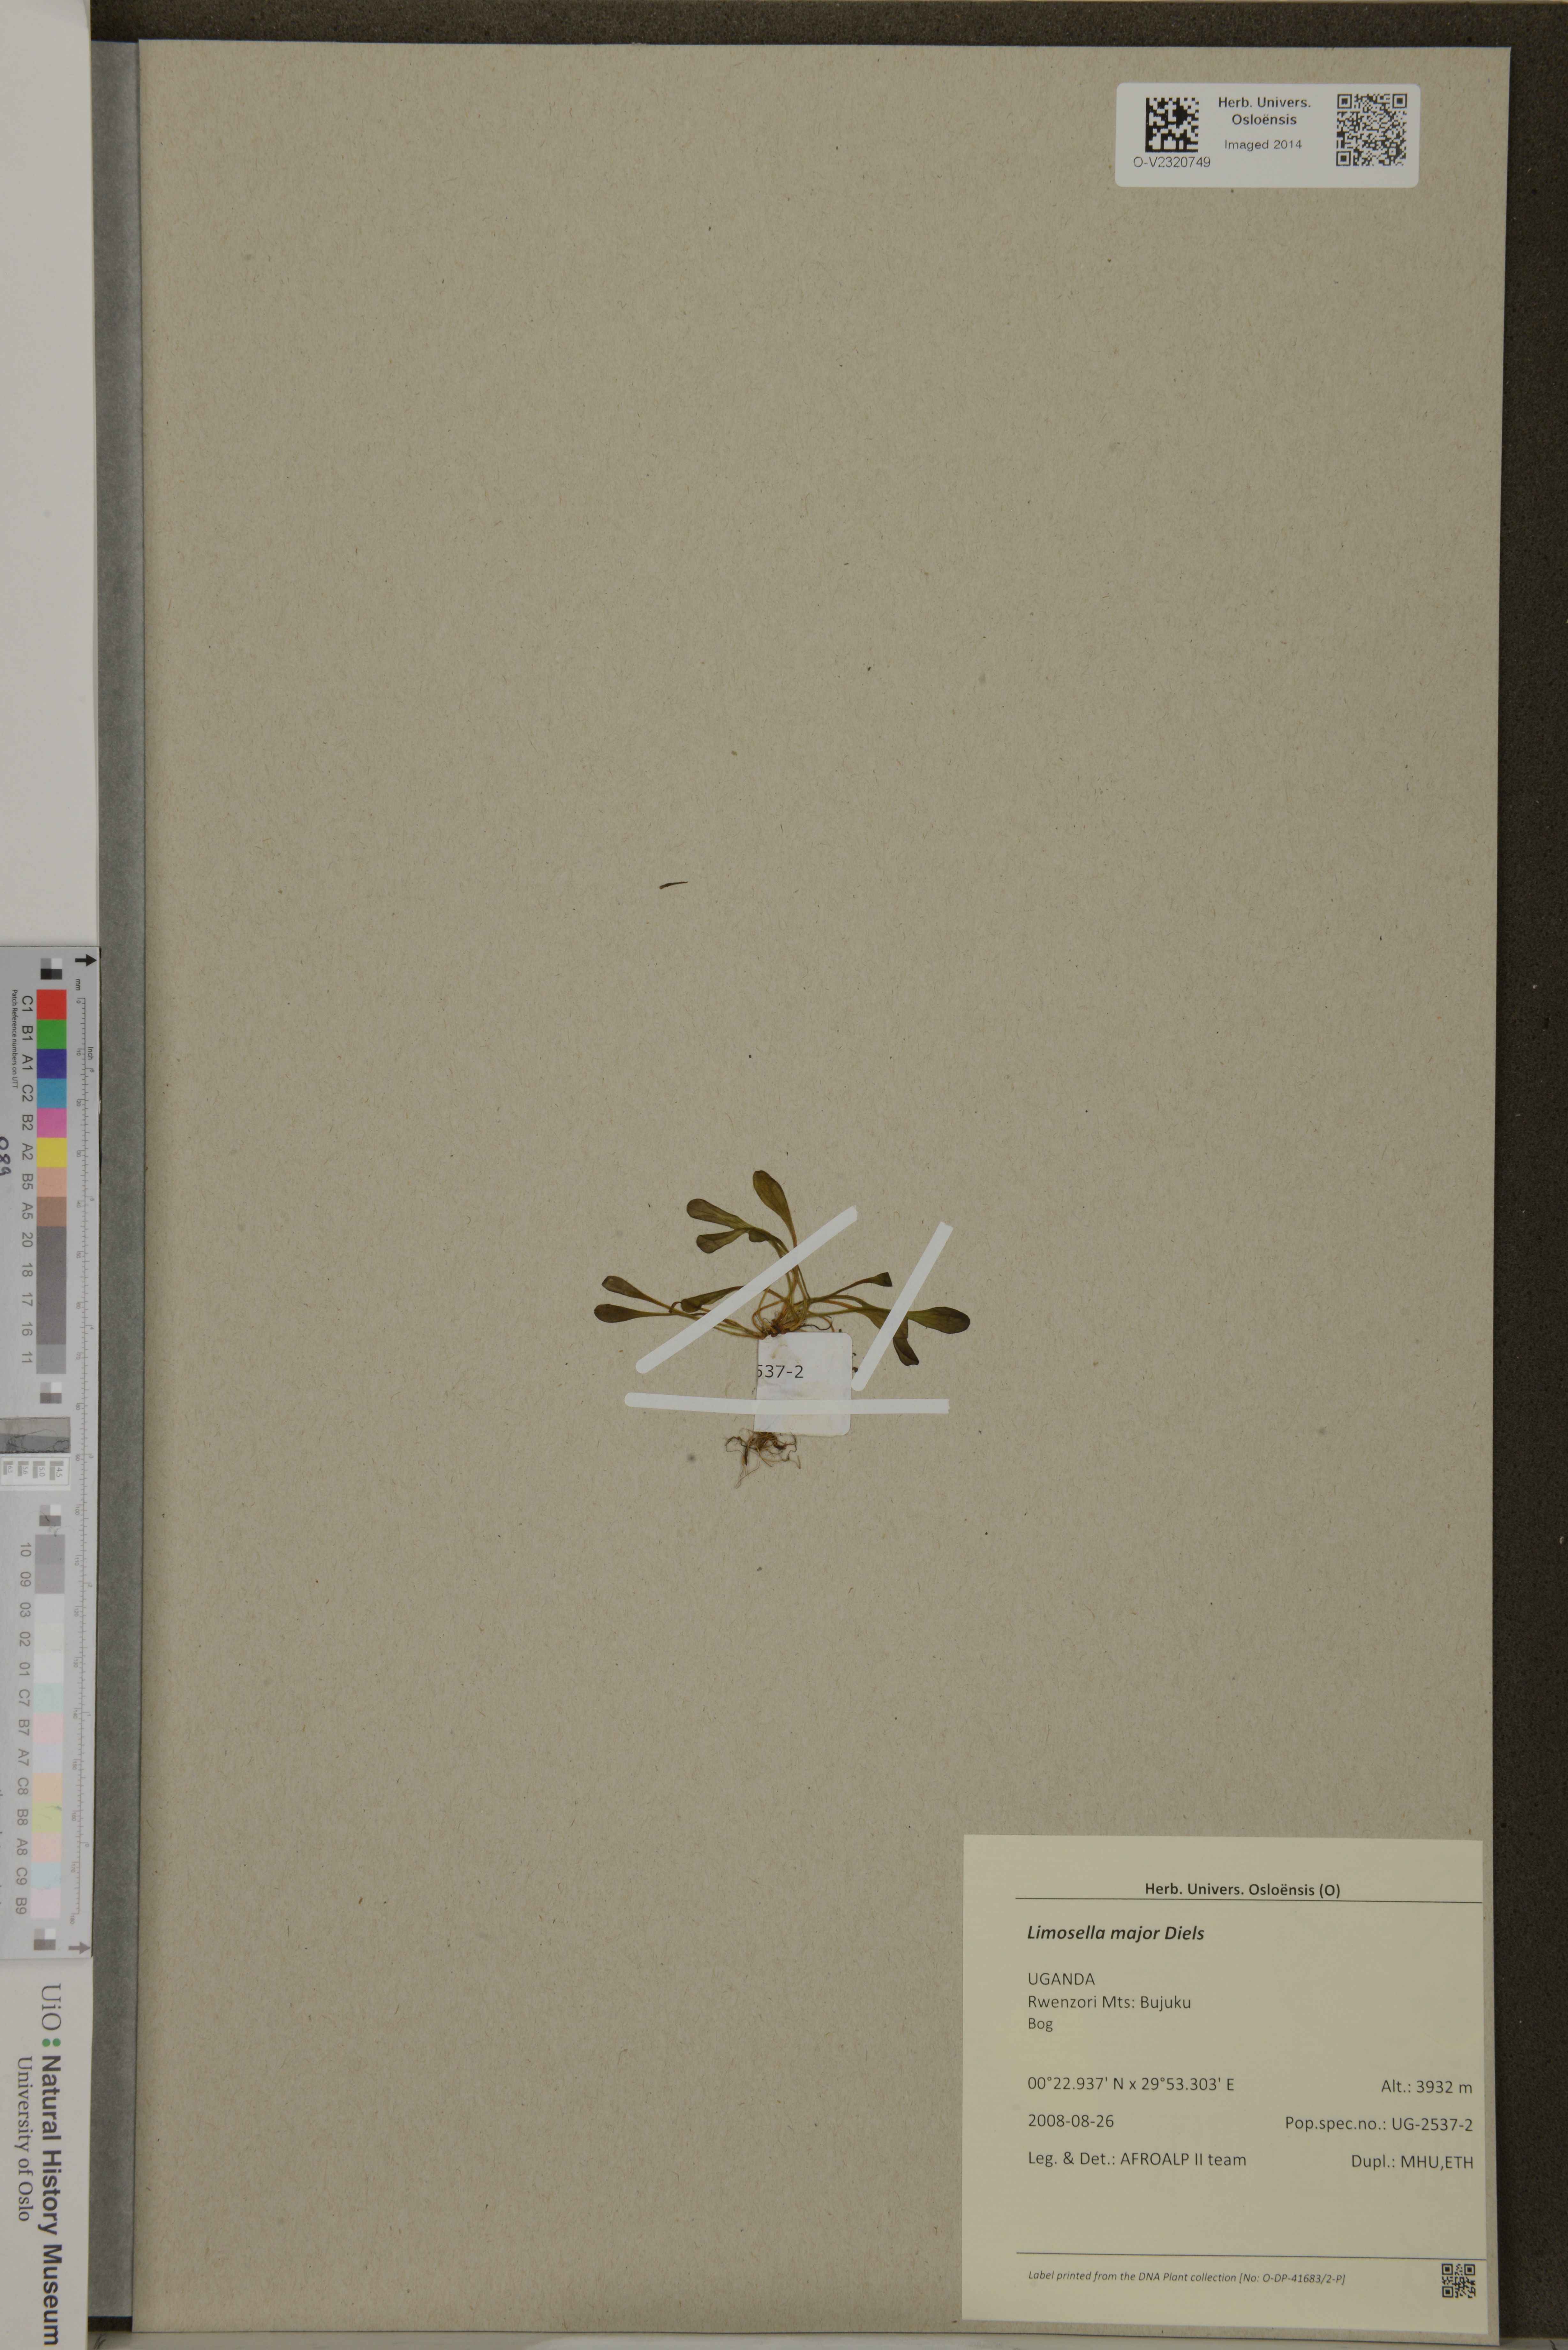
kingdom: Plantae
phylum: Tracheophyta
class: Magnoliopsida
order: Lamiales
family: Scrophulariaceae
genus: Limosella
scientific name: Limosella major
